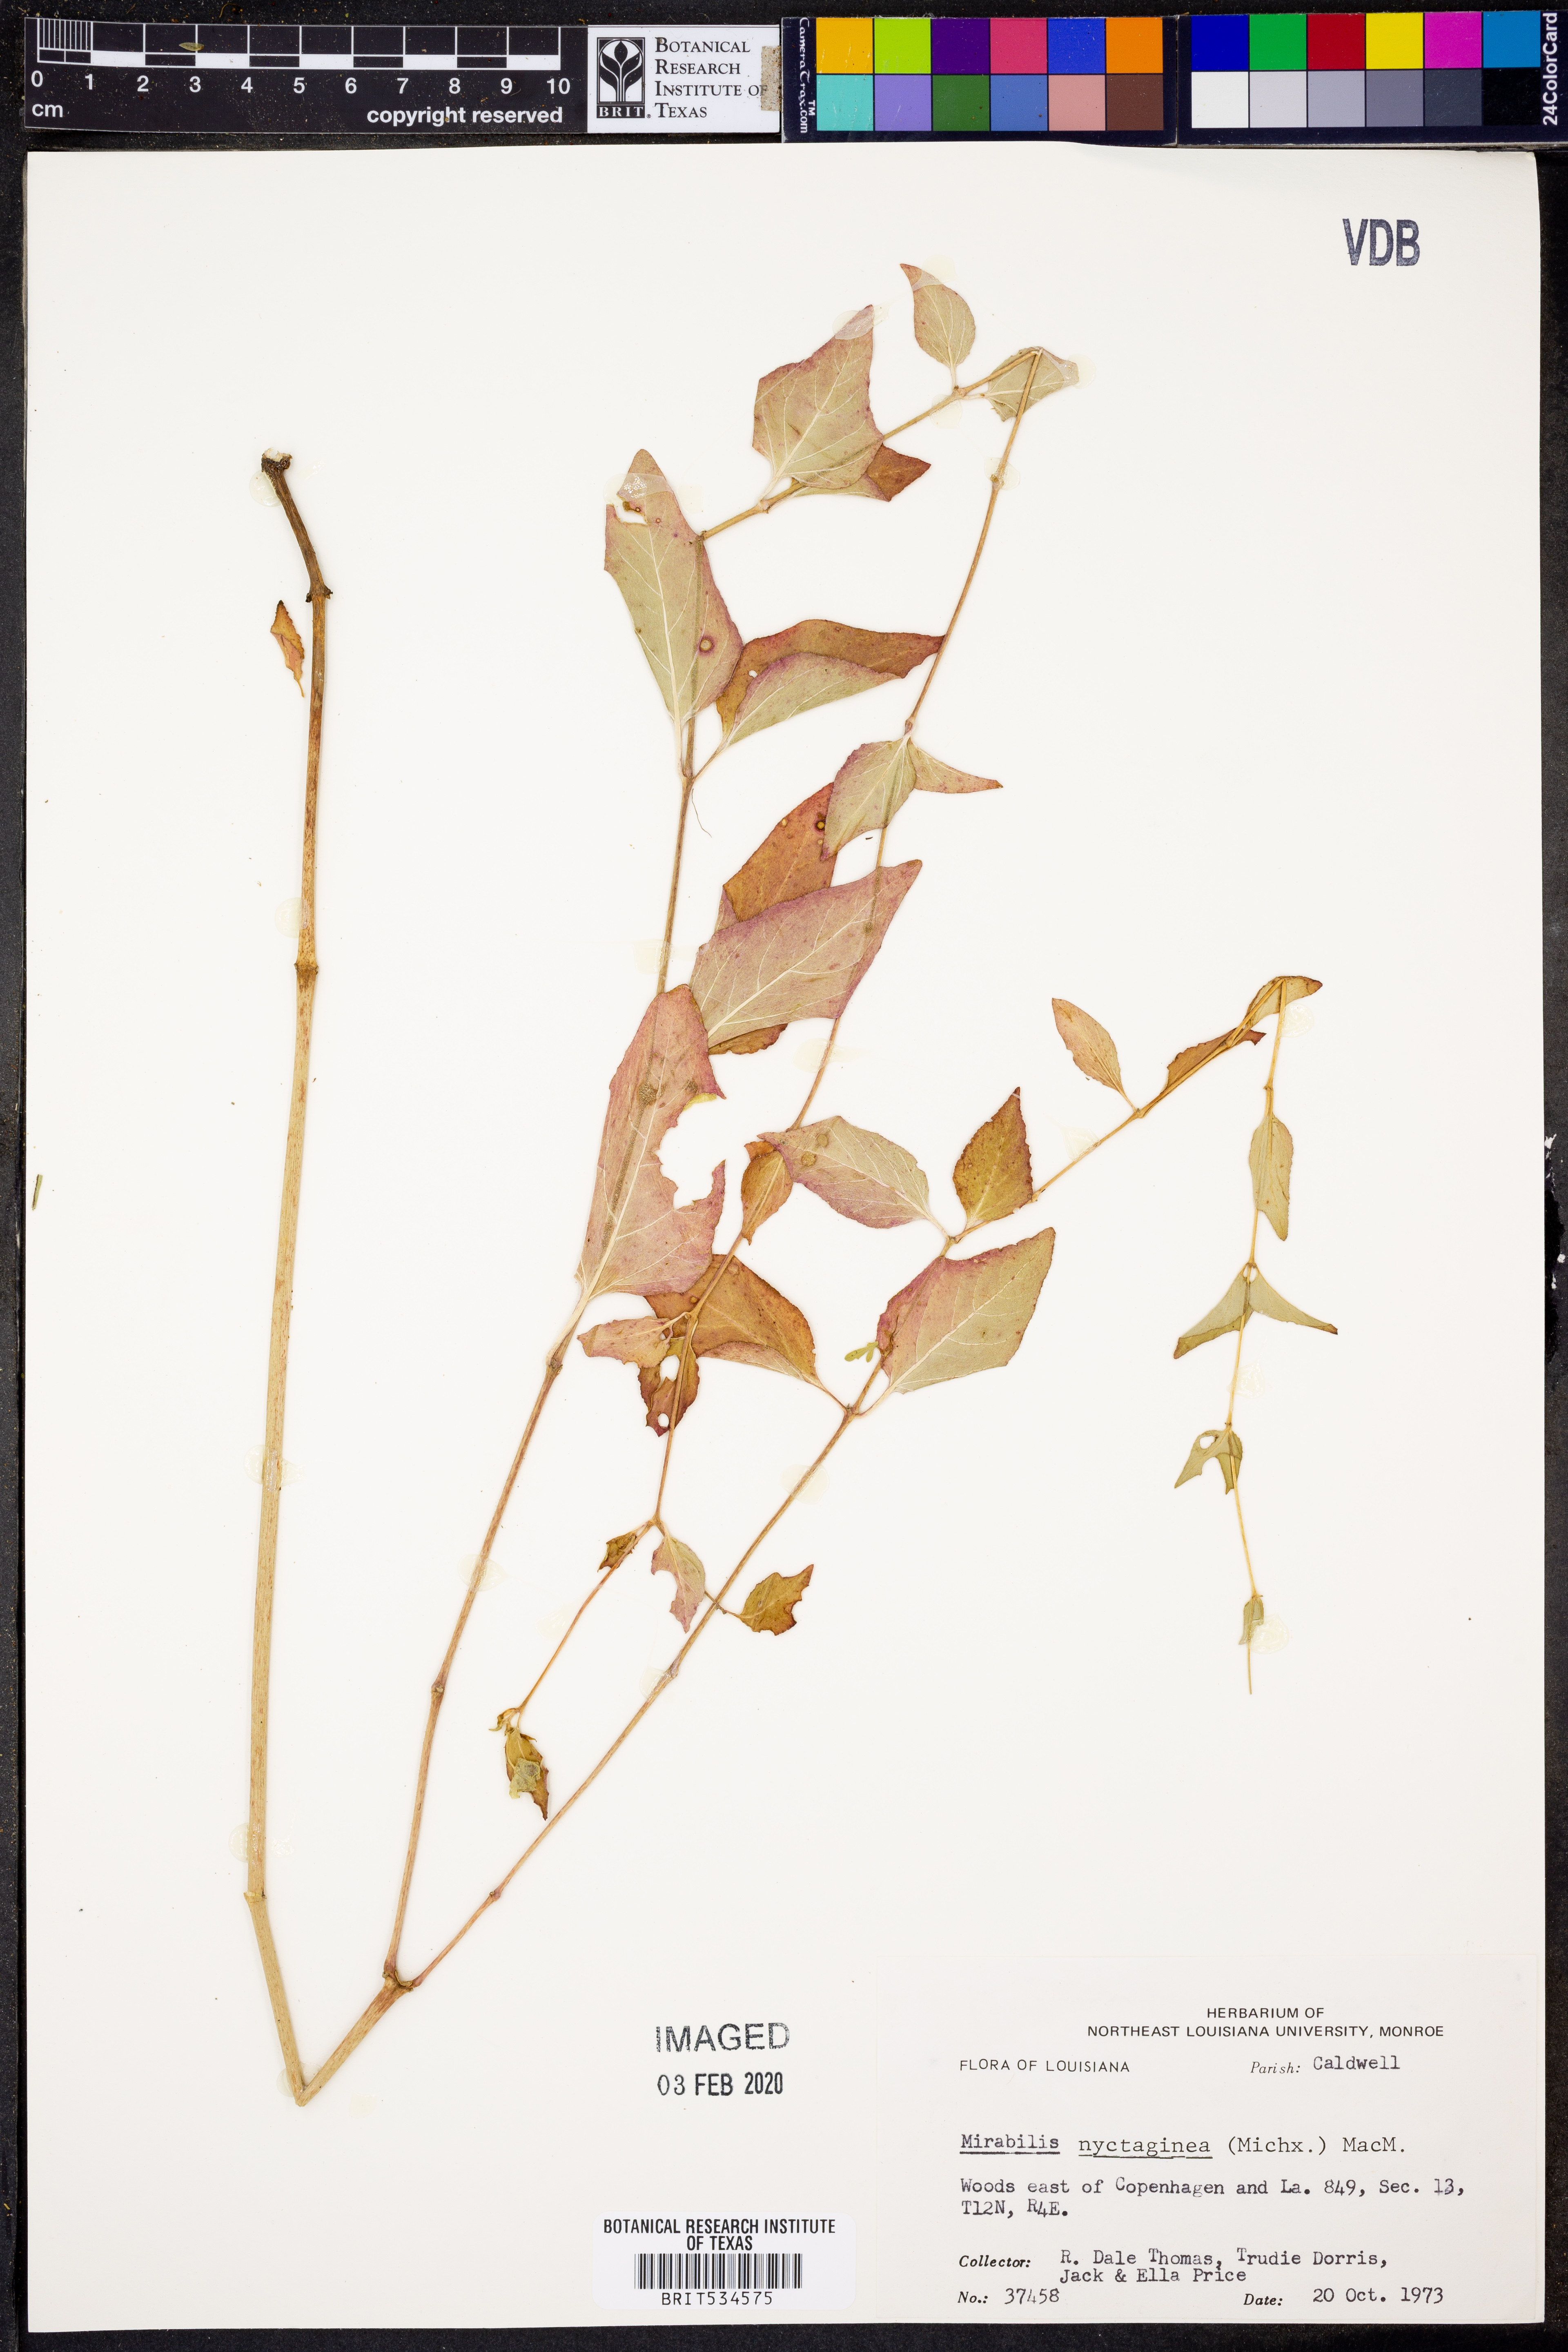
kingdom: Plantae
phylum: Tracheophyta
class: Magnoliopsida
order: Caryophyllales
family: Nyctaginaceae
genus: Mirabilis
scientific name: Mirabilis nyctaginea
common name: Umbrella wort
